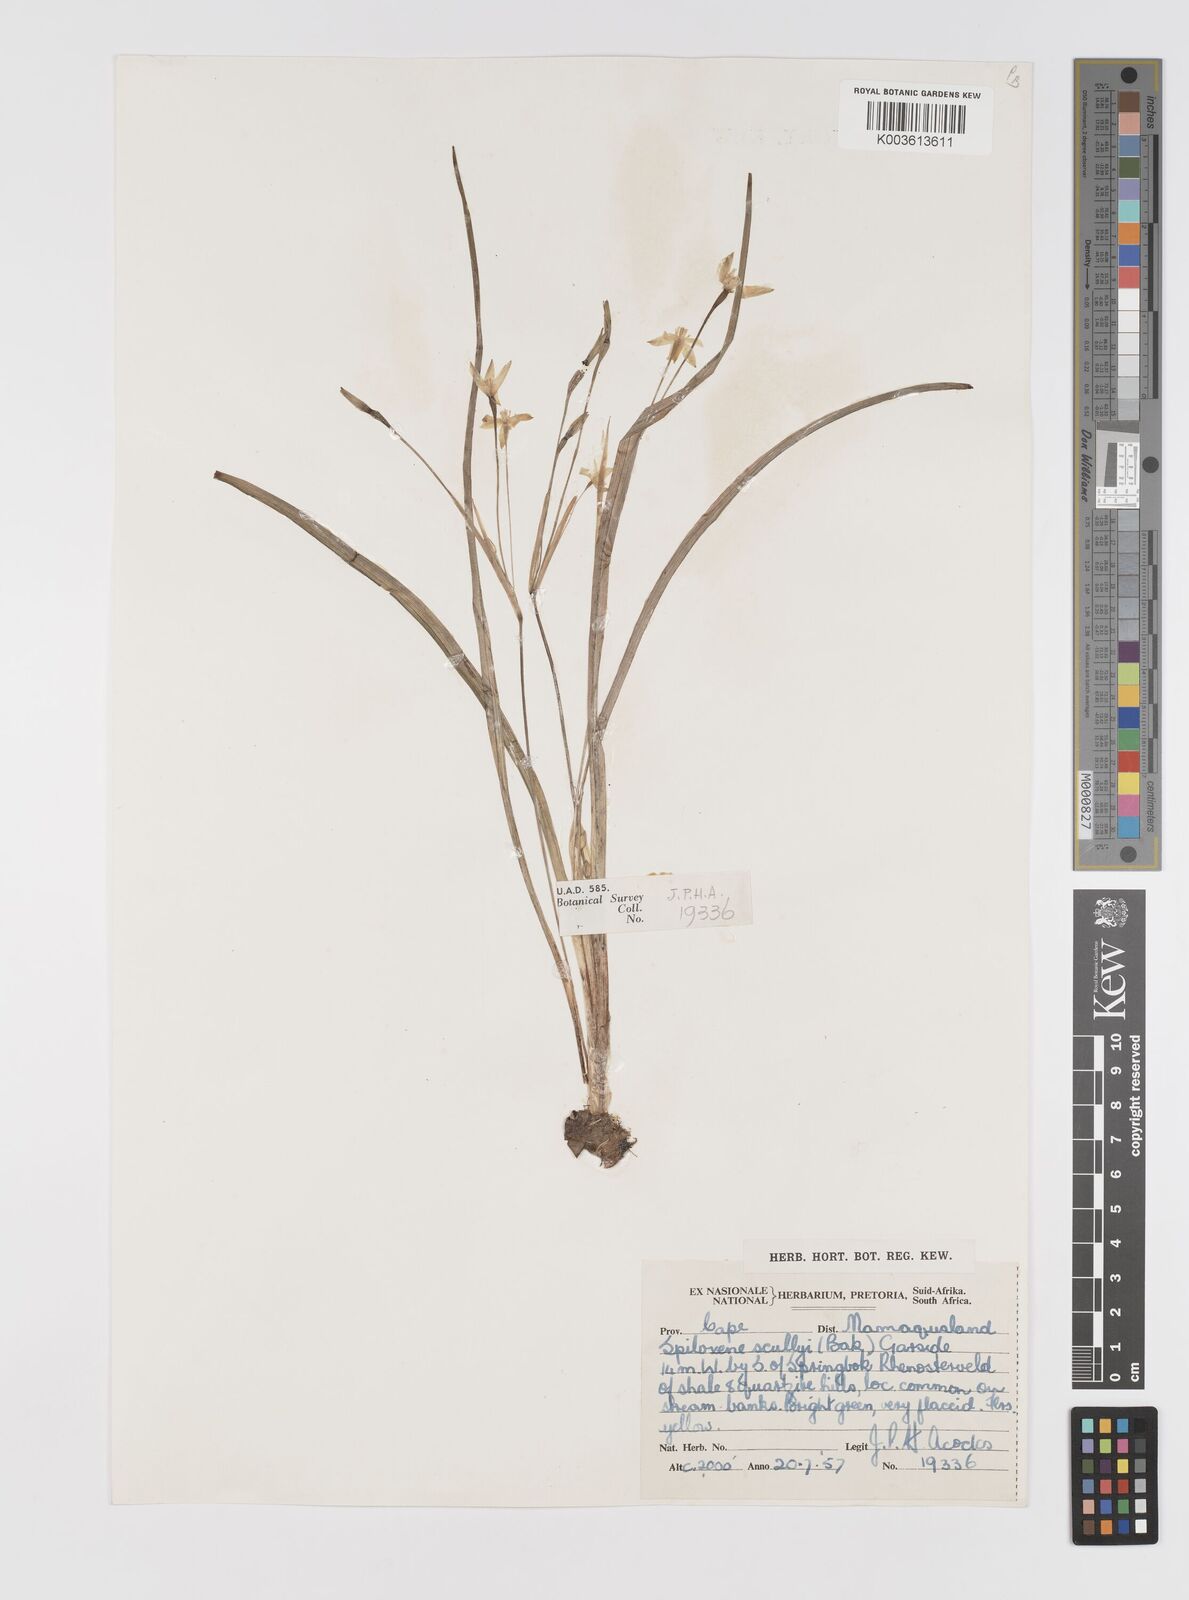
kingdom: Plantae
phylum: Tracheophyta
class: Liliopsida
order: Asparagales
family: Hypoxidaceae
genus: Pauridia
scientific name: Pauridia scullyi
